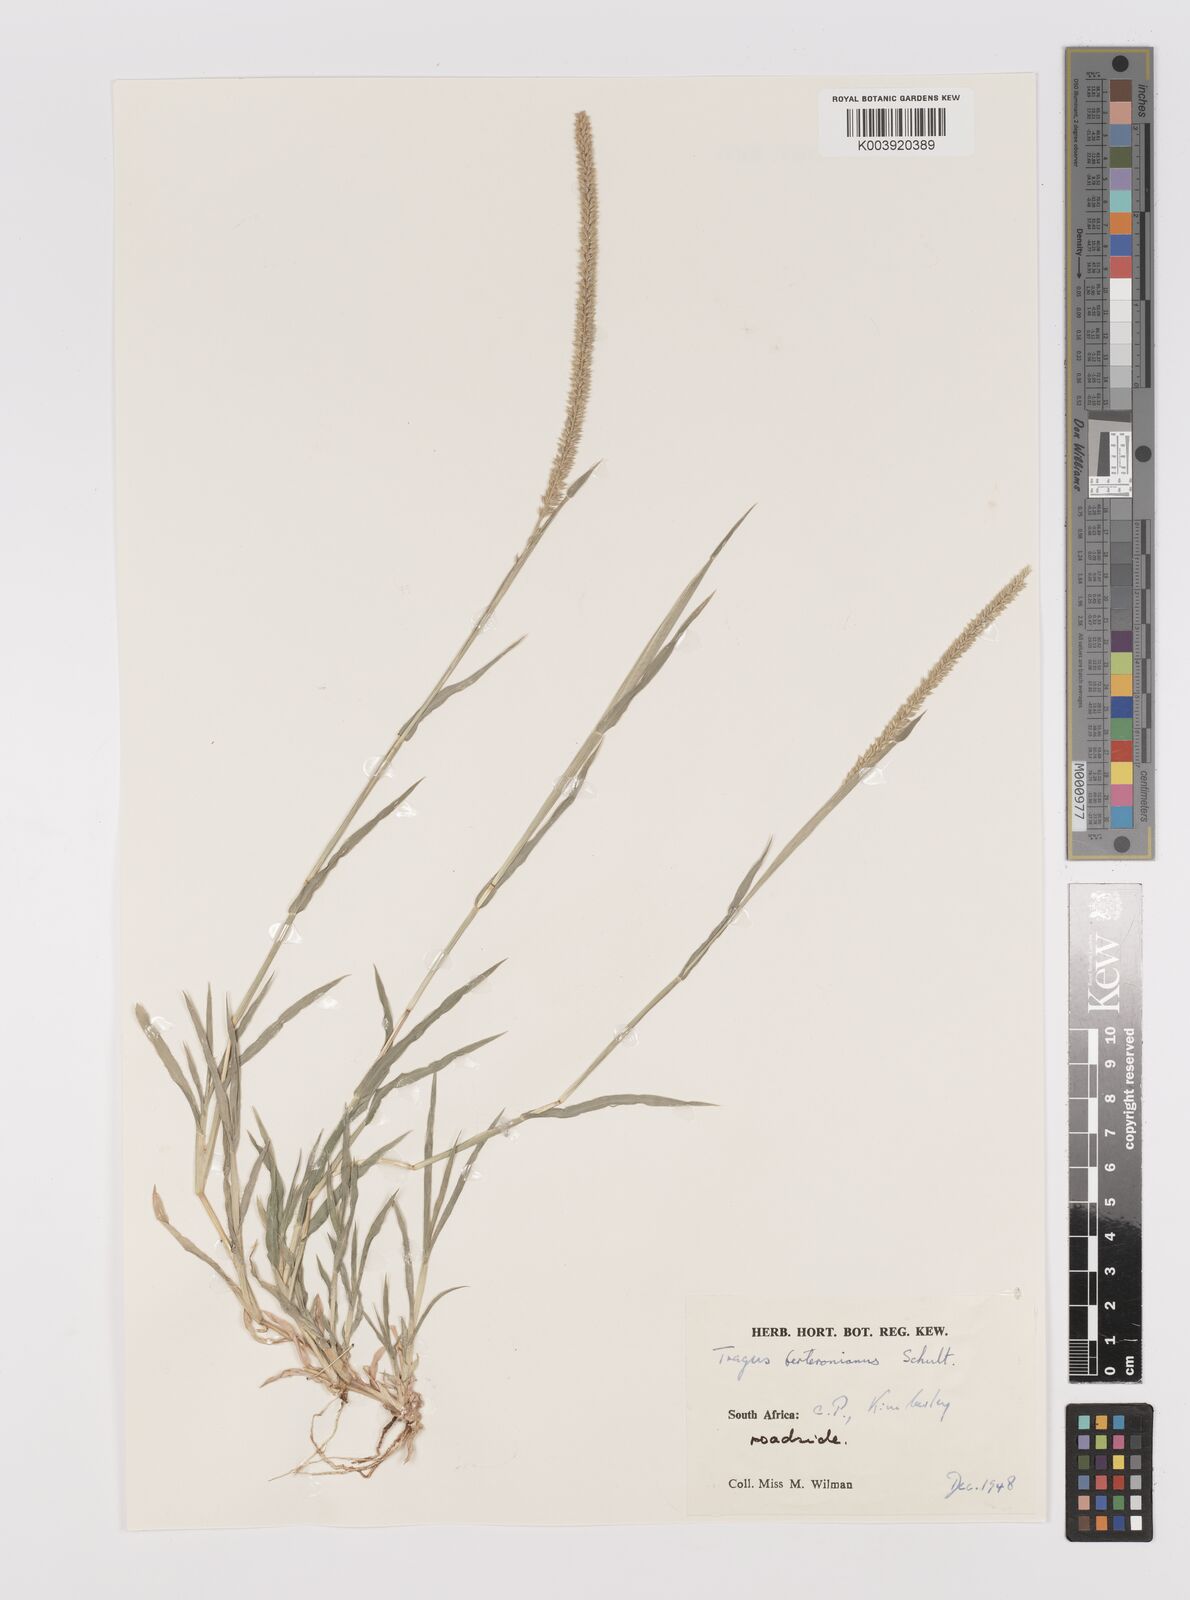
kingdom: Plantae
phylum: Tracheophyta
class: Liliopsida
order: Poales
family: Poaceae
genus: Tragus
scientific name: Tragus berteronianus
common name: African bur-grass
